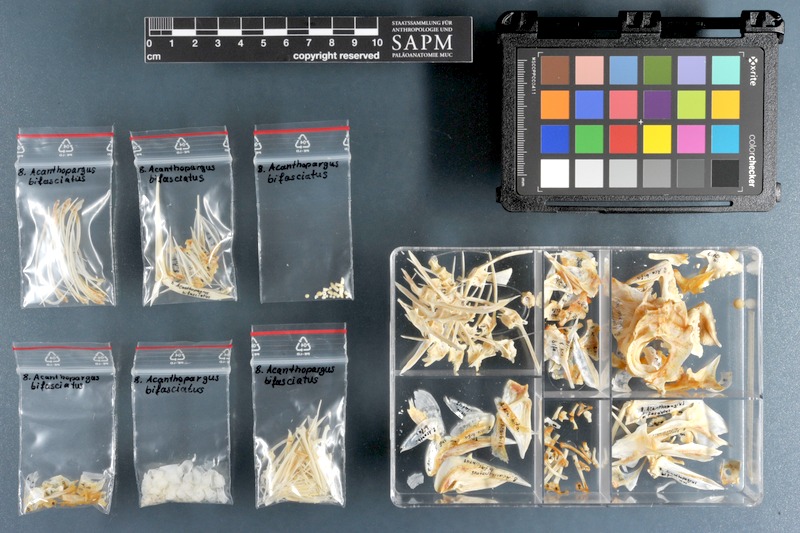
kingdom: Animalia
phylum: Chordata
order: Perciformes
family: Sparidae
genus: Acanthopagrus
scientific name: Acanthopagrus bifasciatus
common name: Twobar seabream
